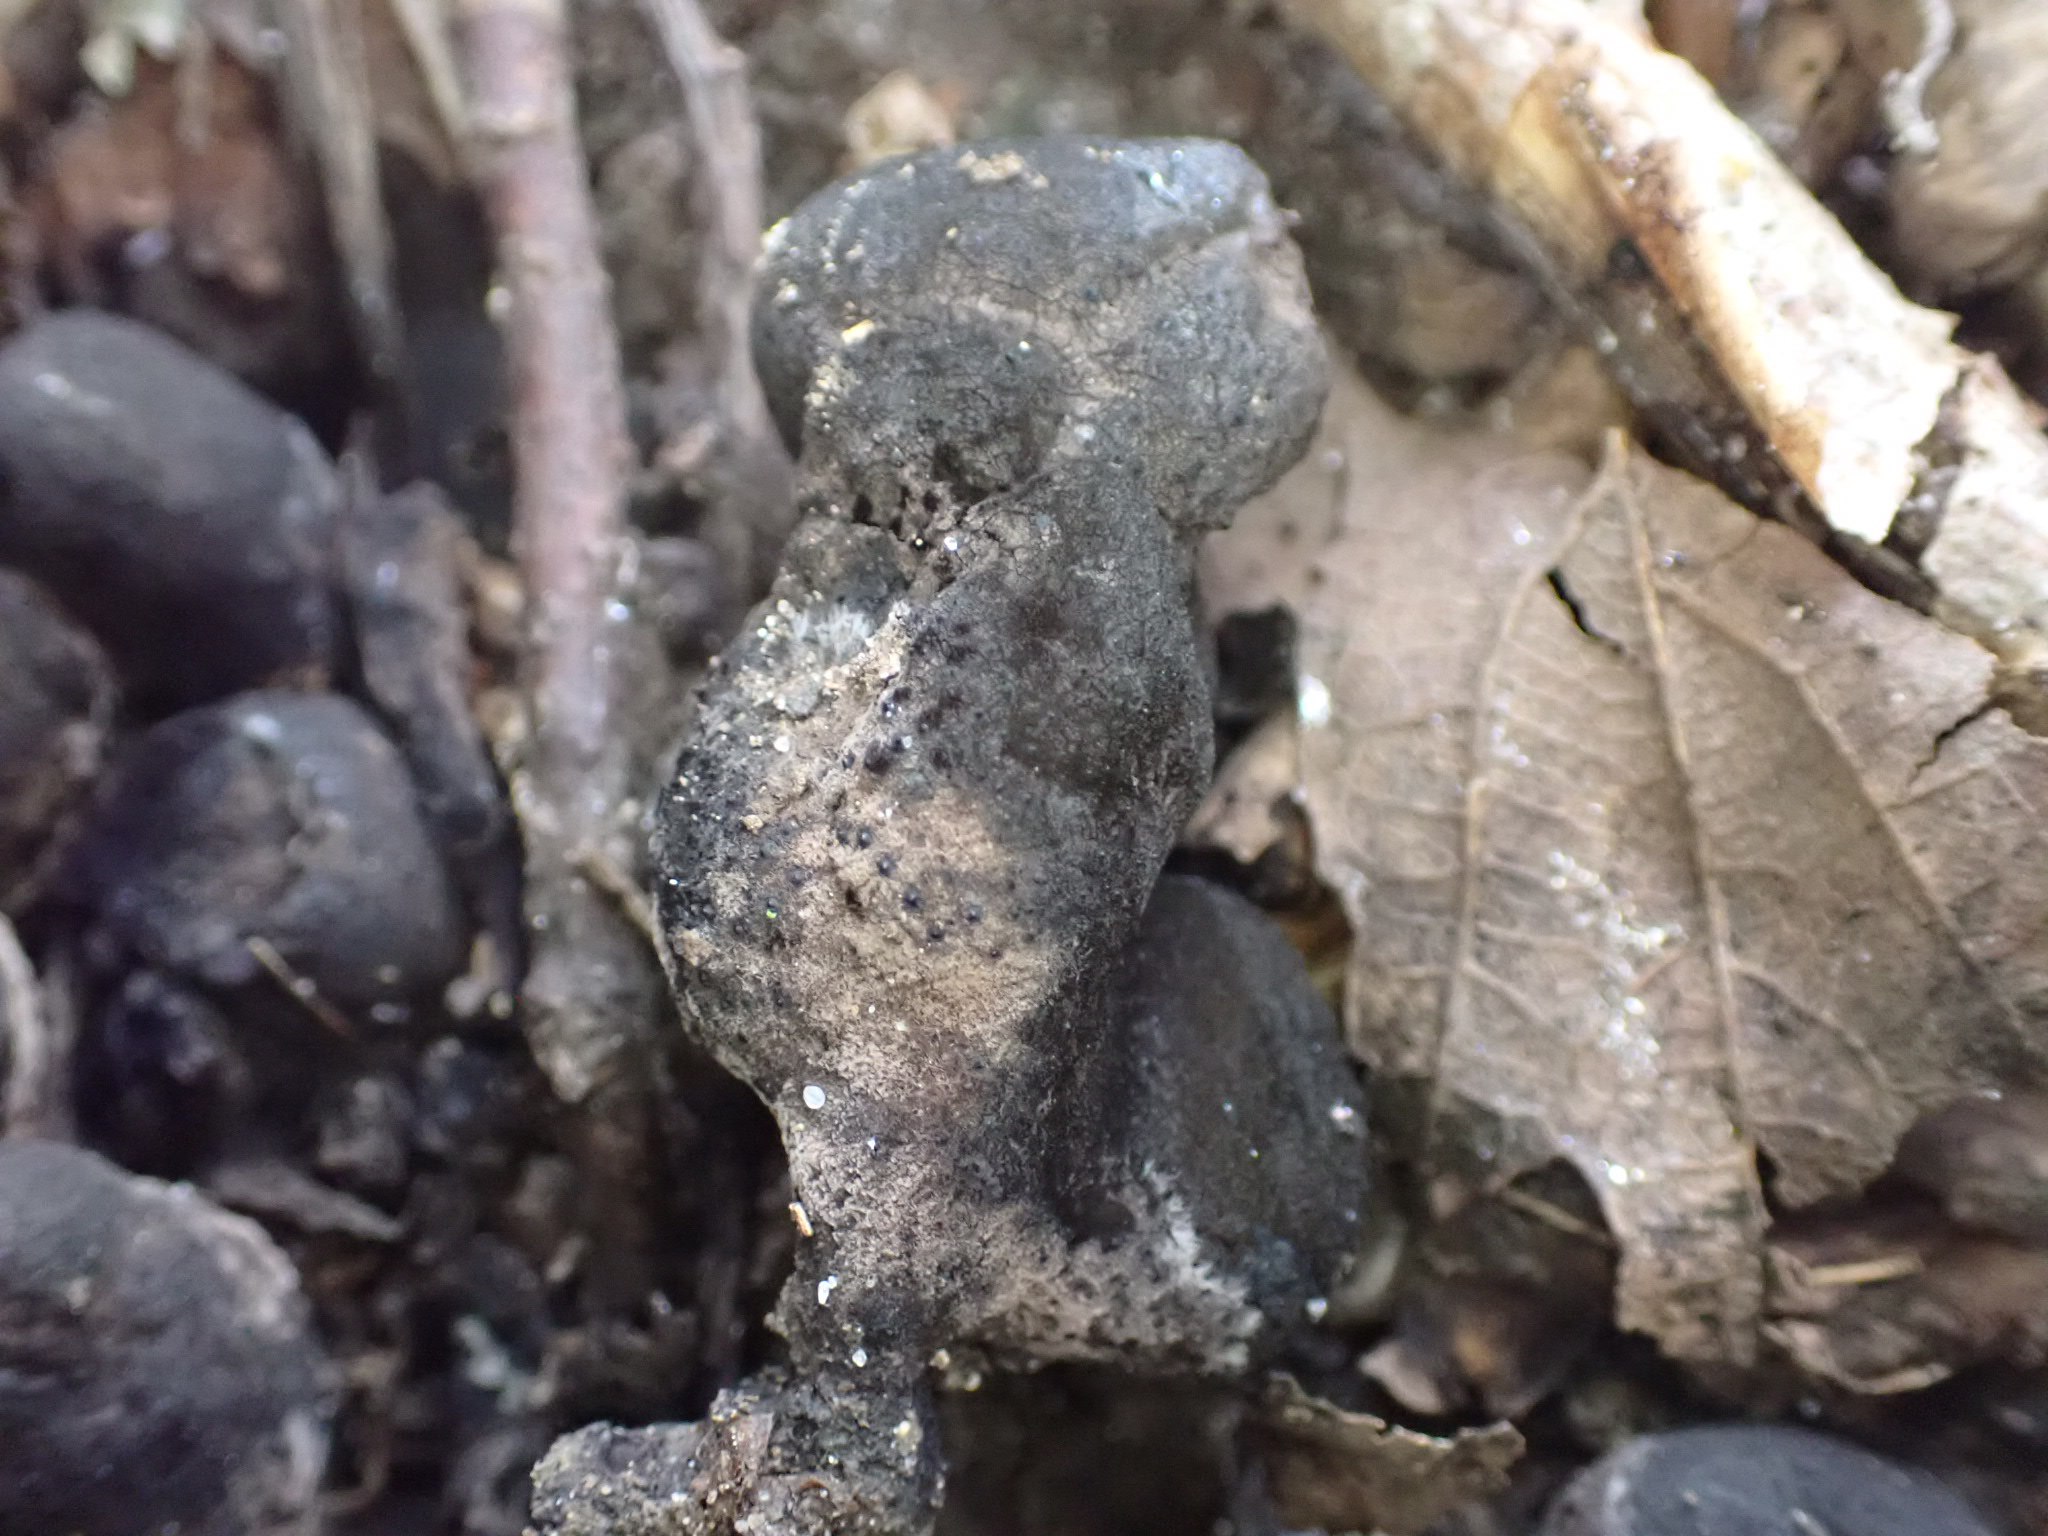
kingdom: Fungi
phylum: Ascomycota
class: Sordariomycetes
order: Xylariales
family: Xylariaceae
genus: Xylaria
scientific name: Xylaria polymorpha
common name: kølle-stødsvamp
